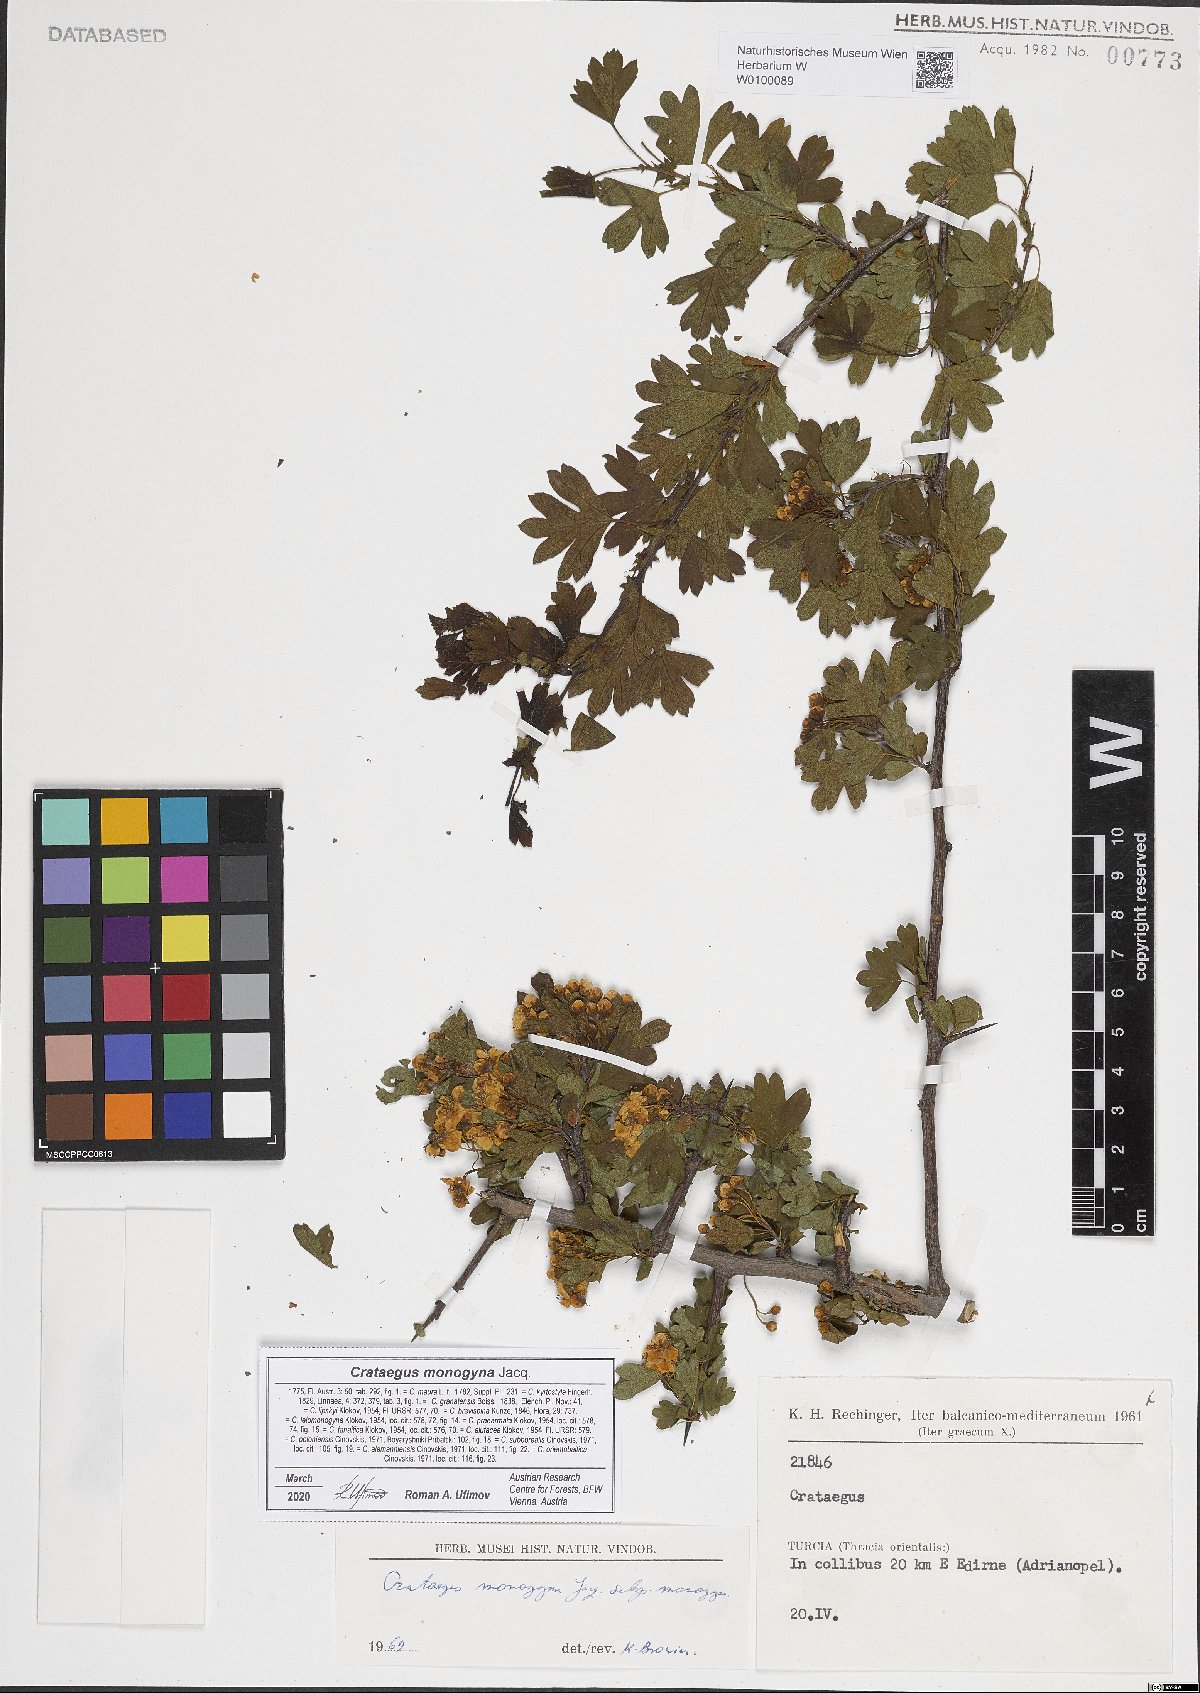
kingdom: Plantae
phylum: Tracheophyta
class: Magnoliopsida
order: Rosales
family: Rosaceae
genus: Crataegus
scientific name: Crataegus monogyna
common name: Hawthorn
